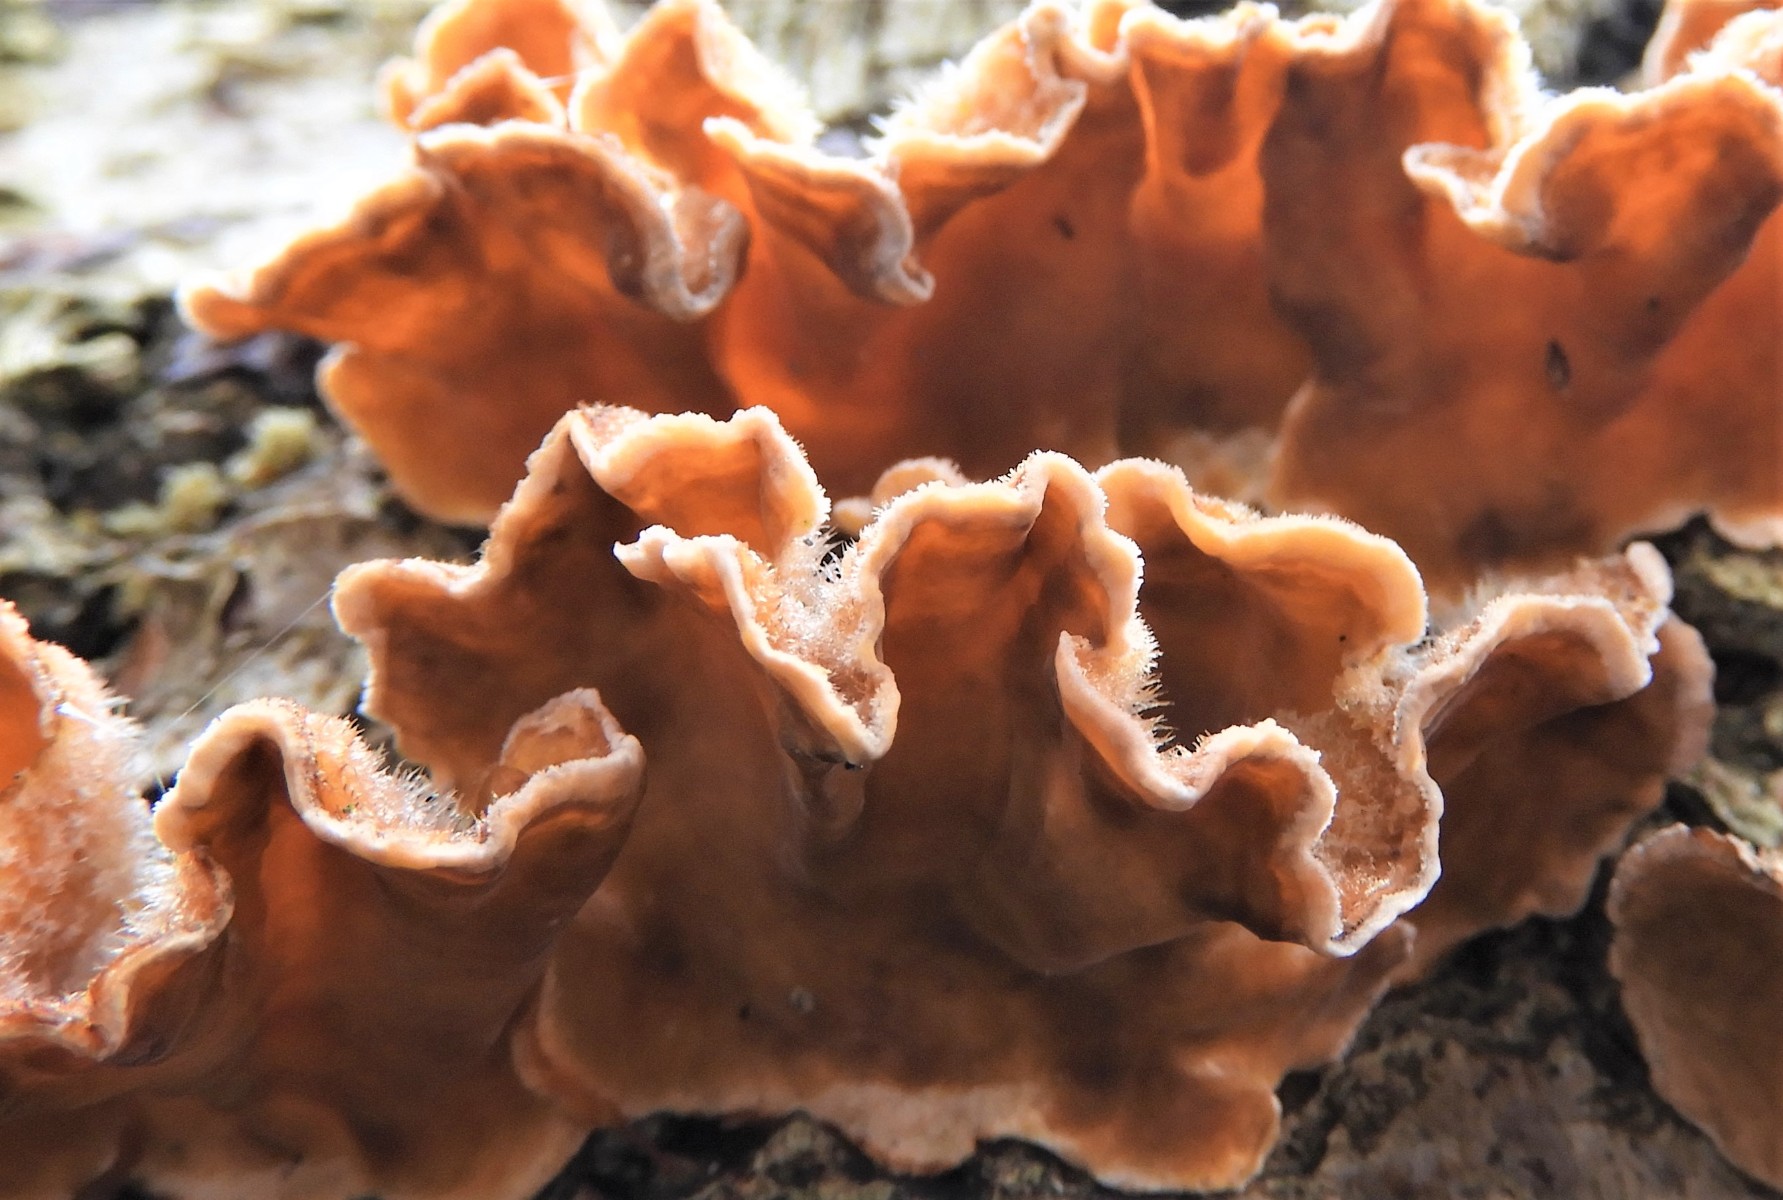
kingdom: Fungi
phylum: Basidiomycota
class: Agaricomycetes
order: Russulales
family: Stereaceae
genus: Stereum
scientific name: Stereum hirsutum
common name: håret lædersvamp
